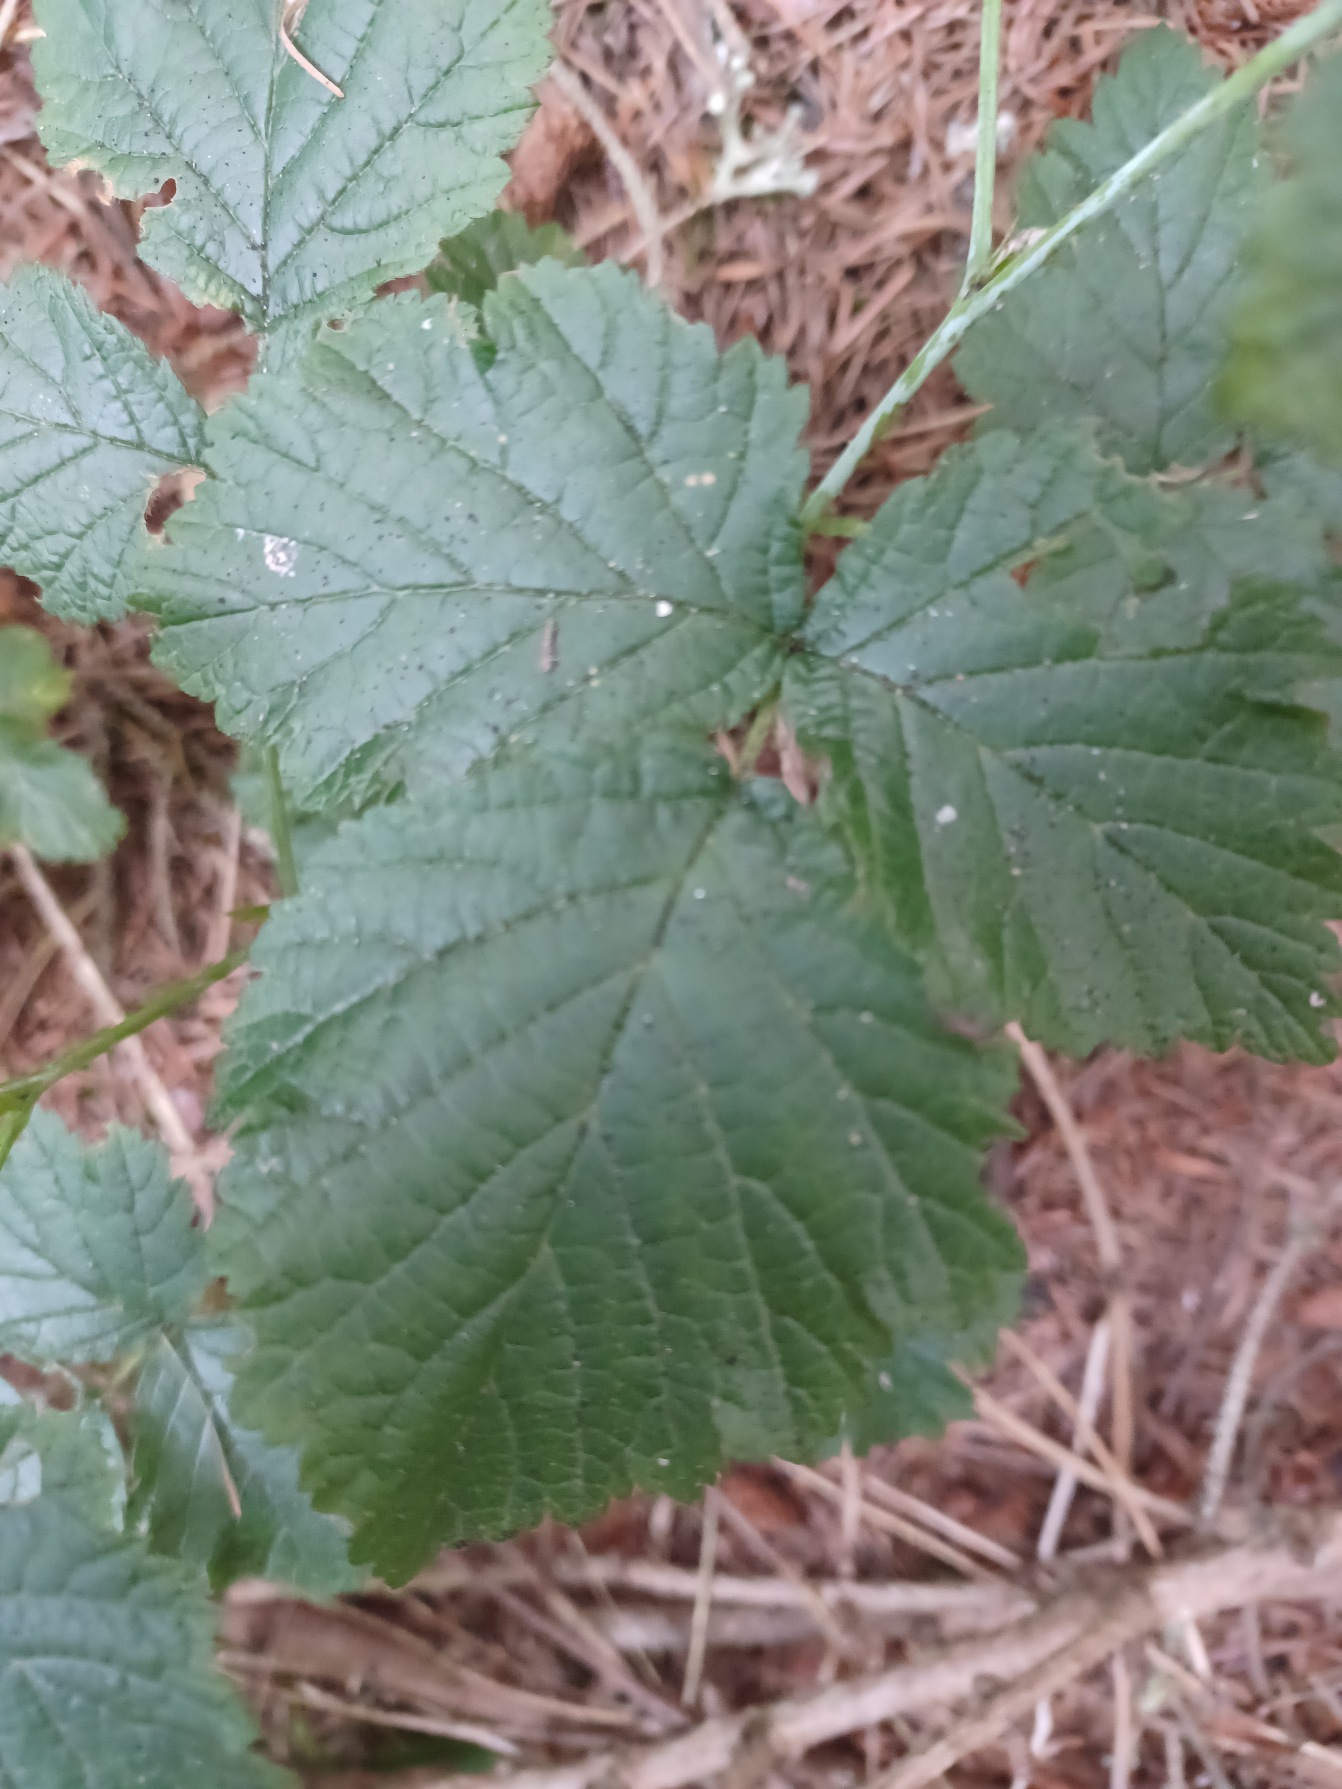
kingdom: Plantae
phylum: Tracheophyta
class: Magnoliopsida
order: Rosales
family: Rosaceae
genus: Rubus
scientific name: Rubus caesius
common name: Korbær
